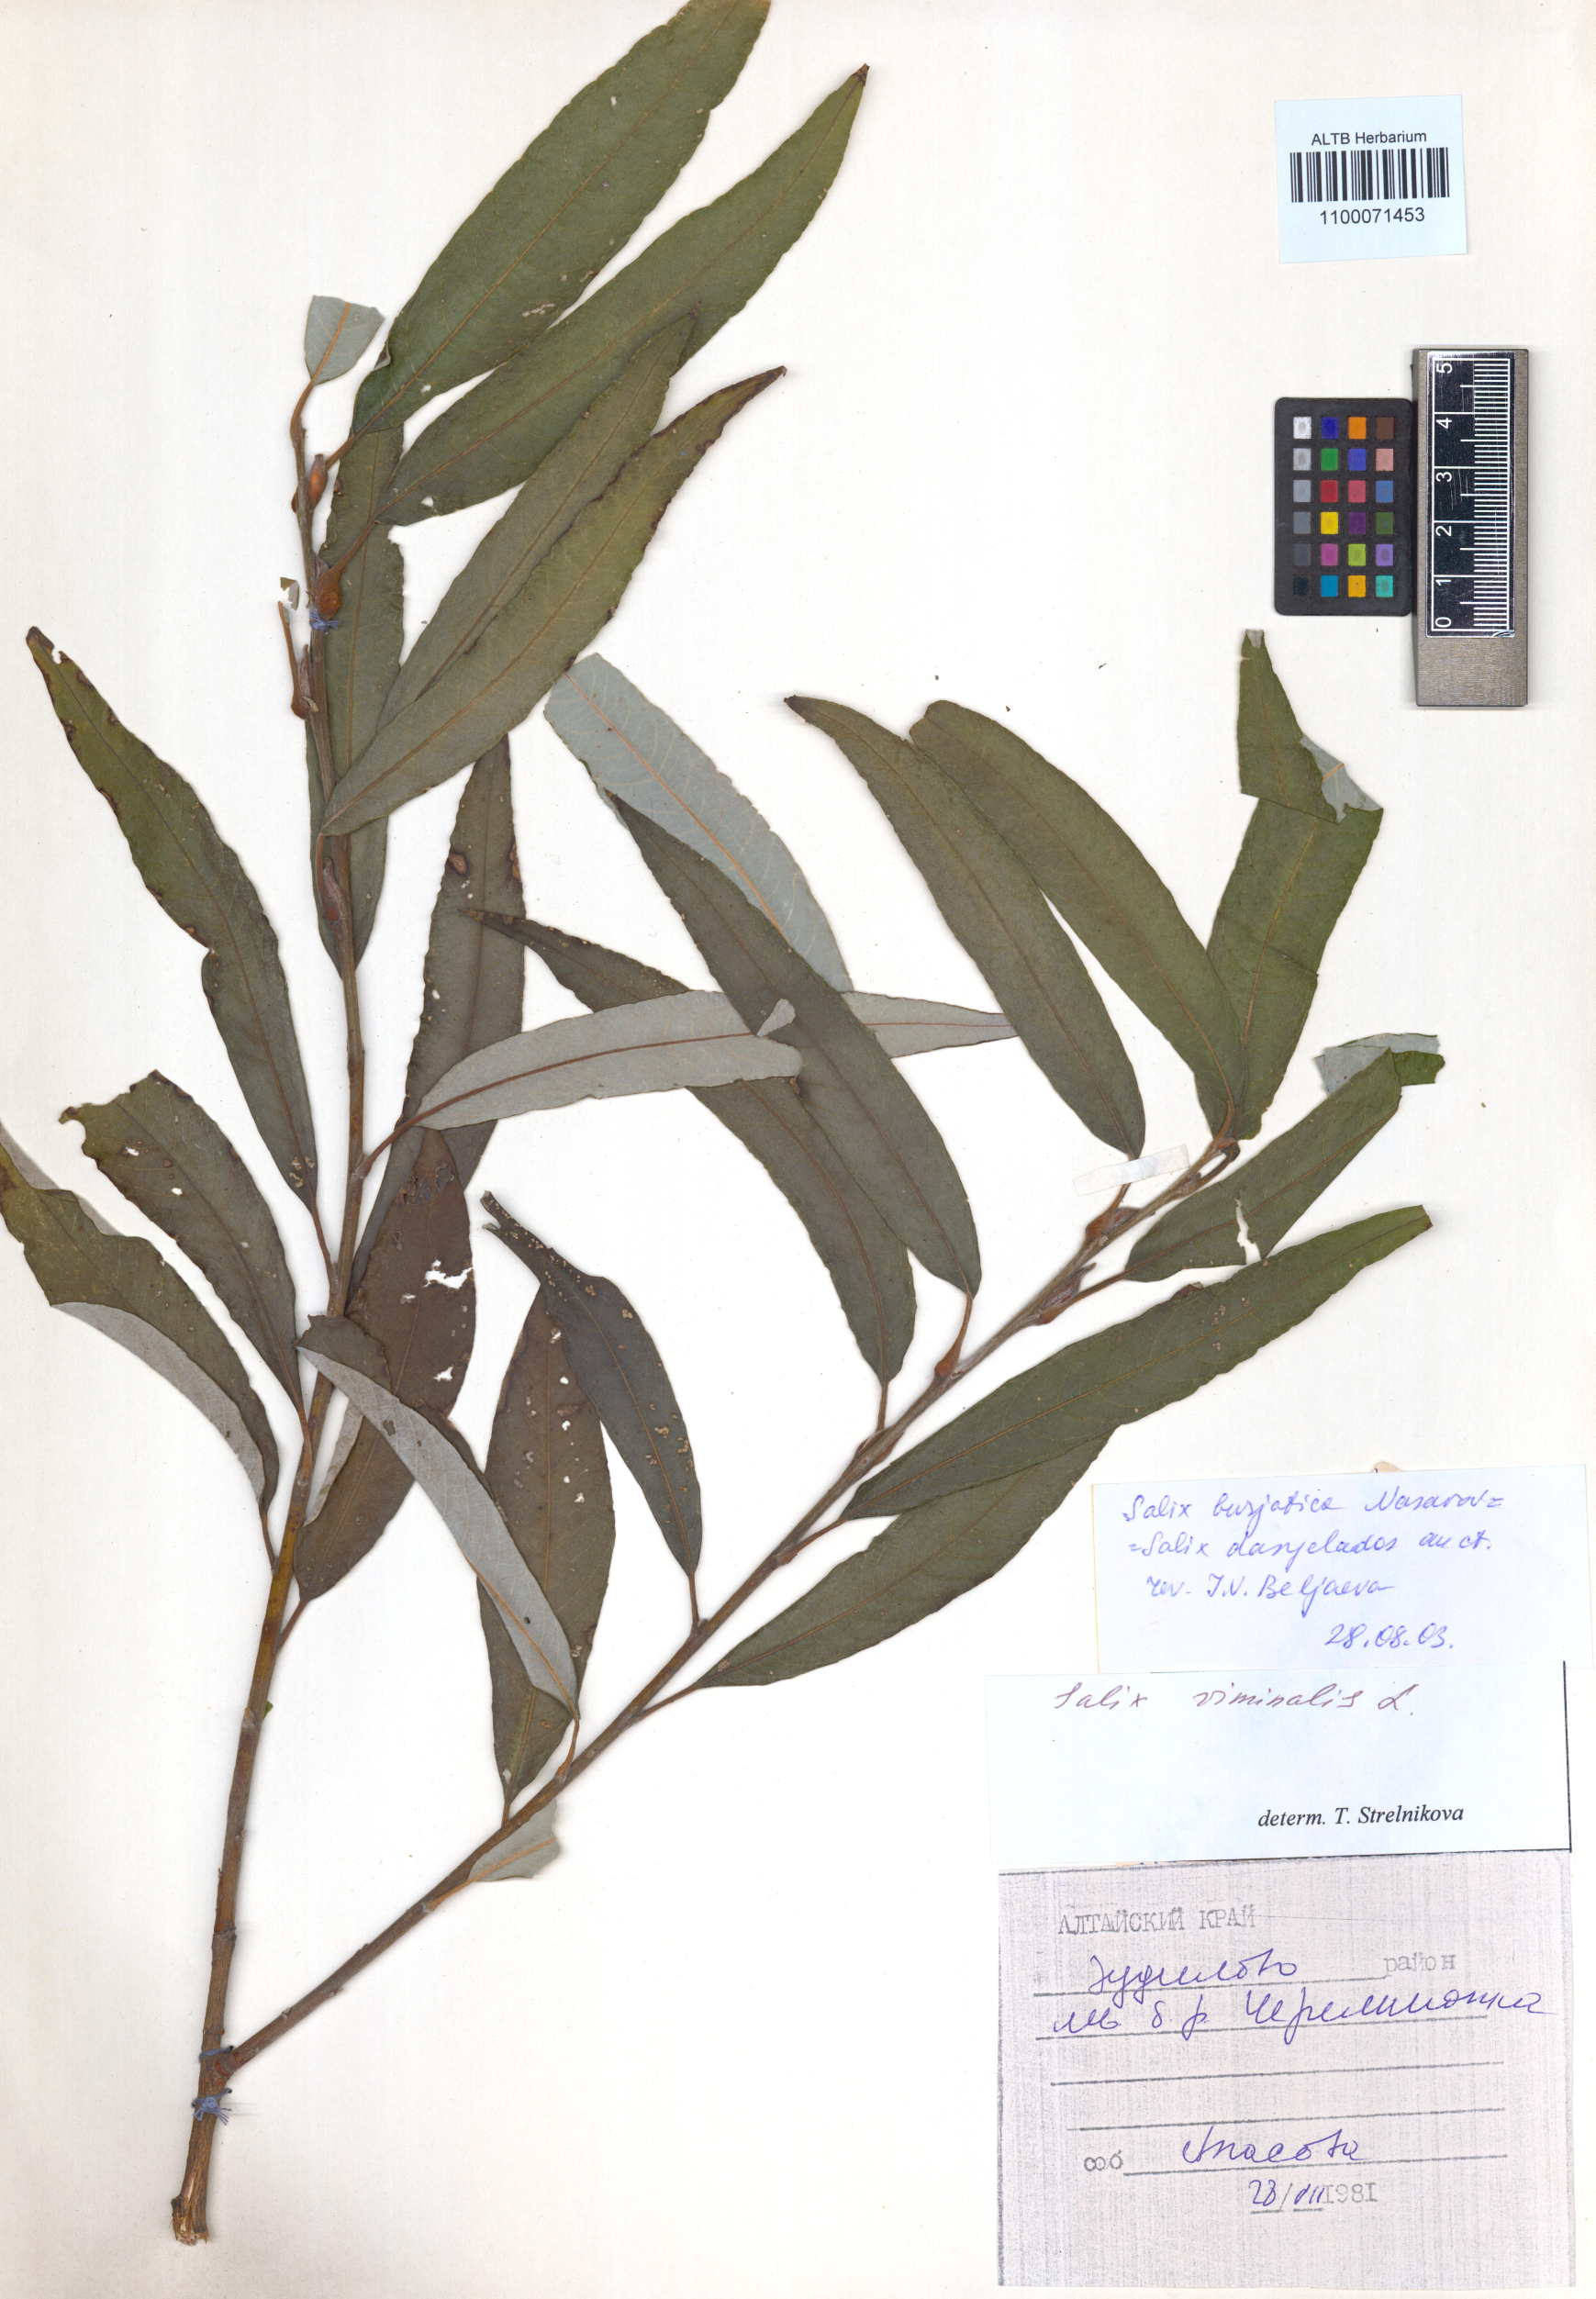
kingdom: Plantae
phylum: Tracheophyta
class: Magnoliopsida
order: Malpighiales
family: Salicaceae
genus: Salix
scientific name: Salix gmelinii
